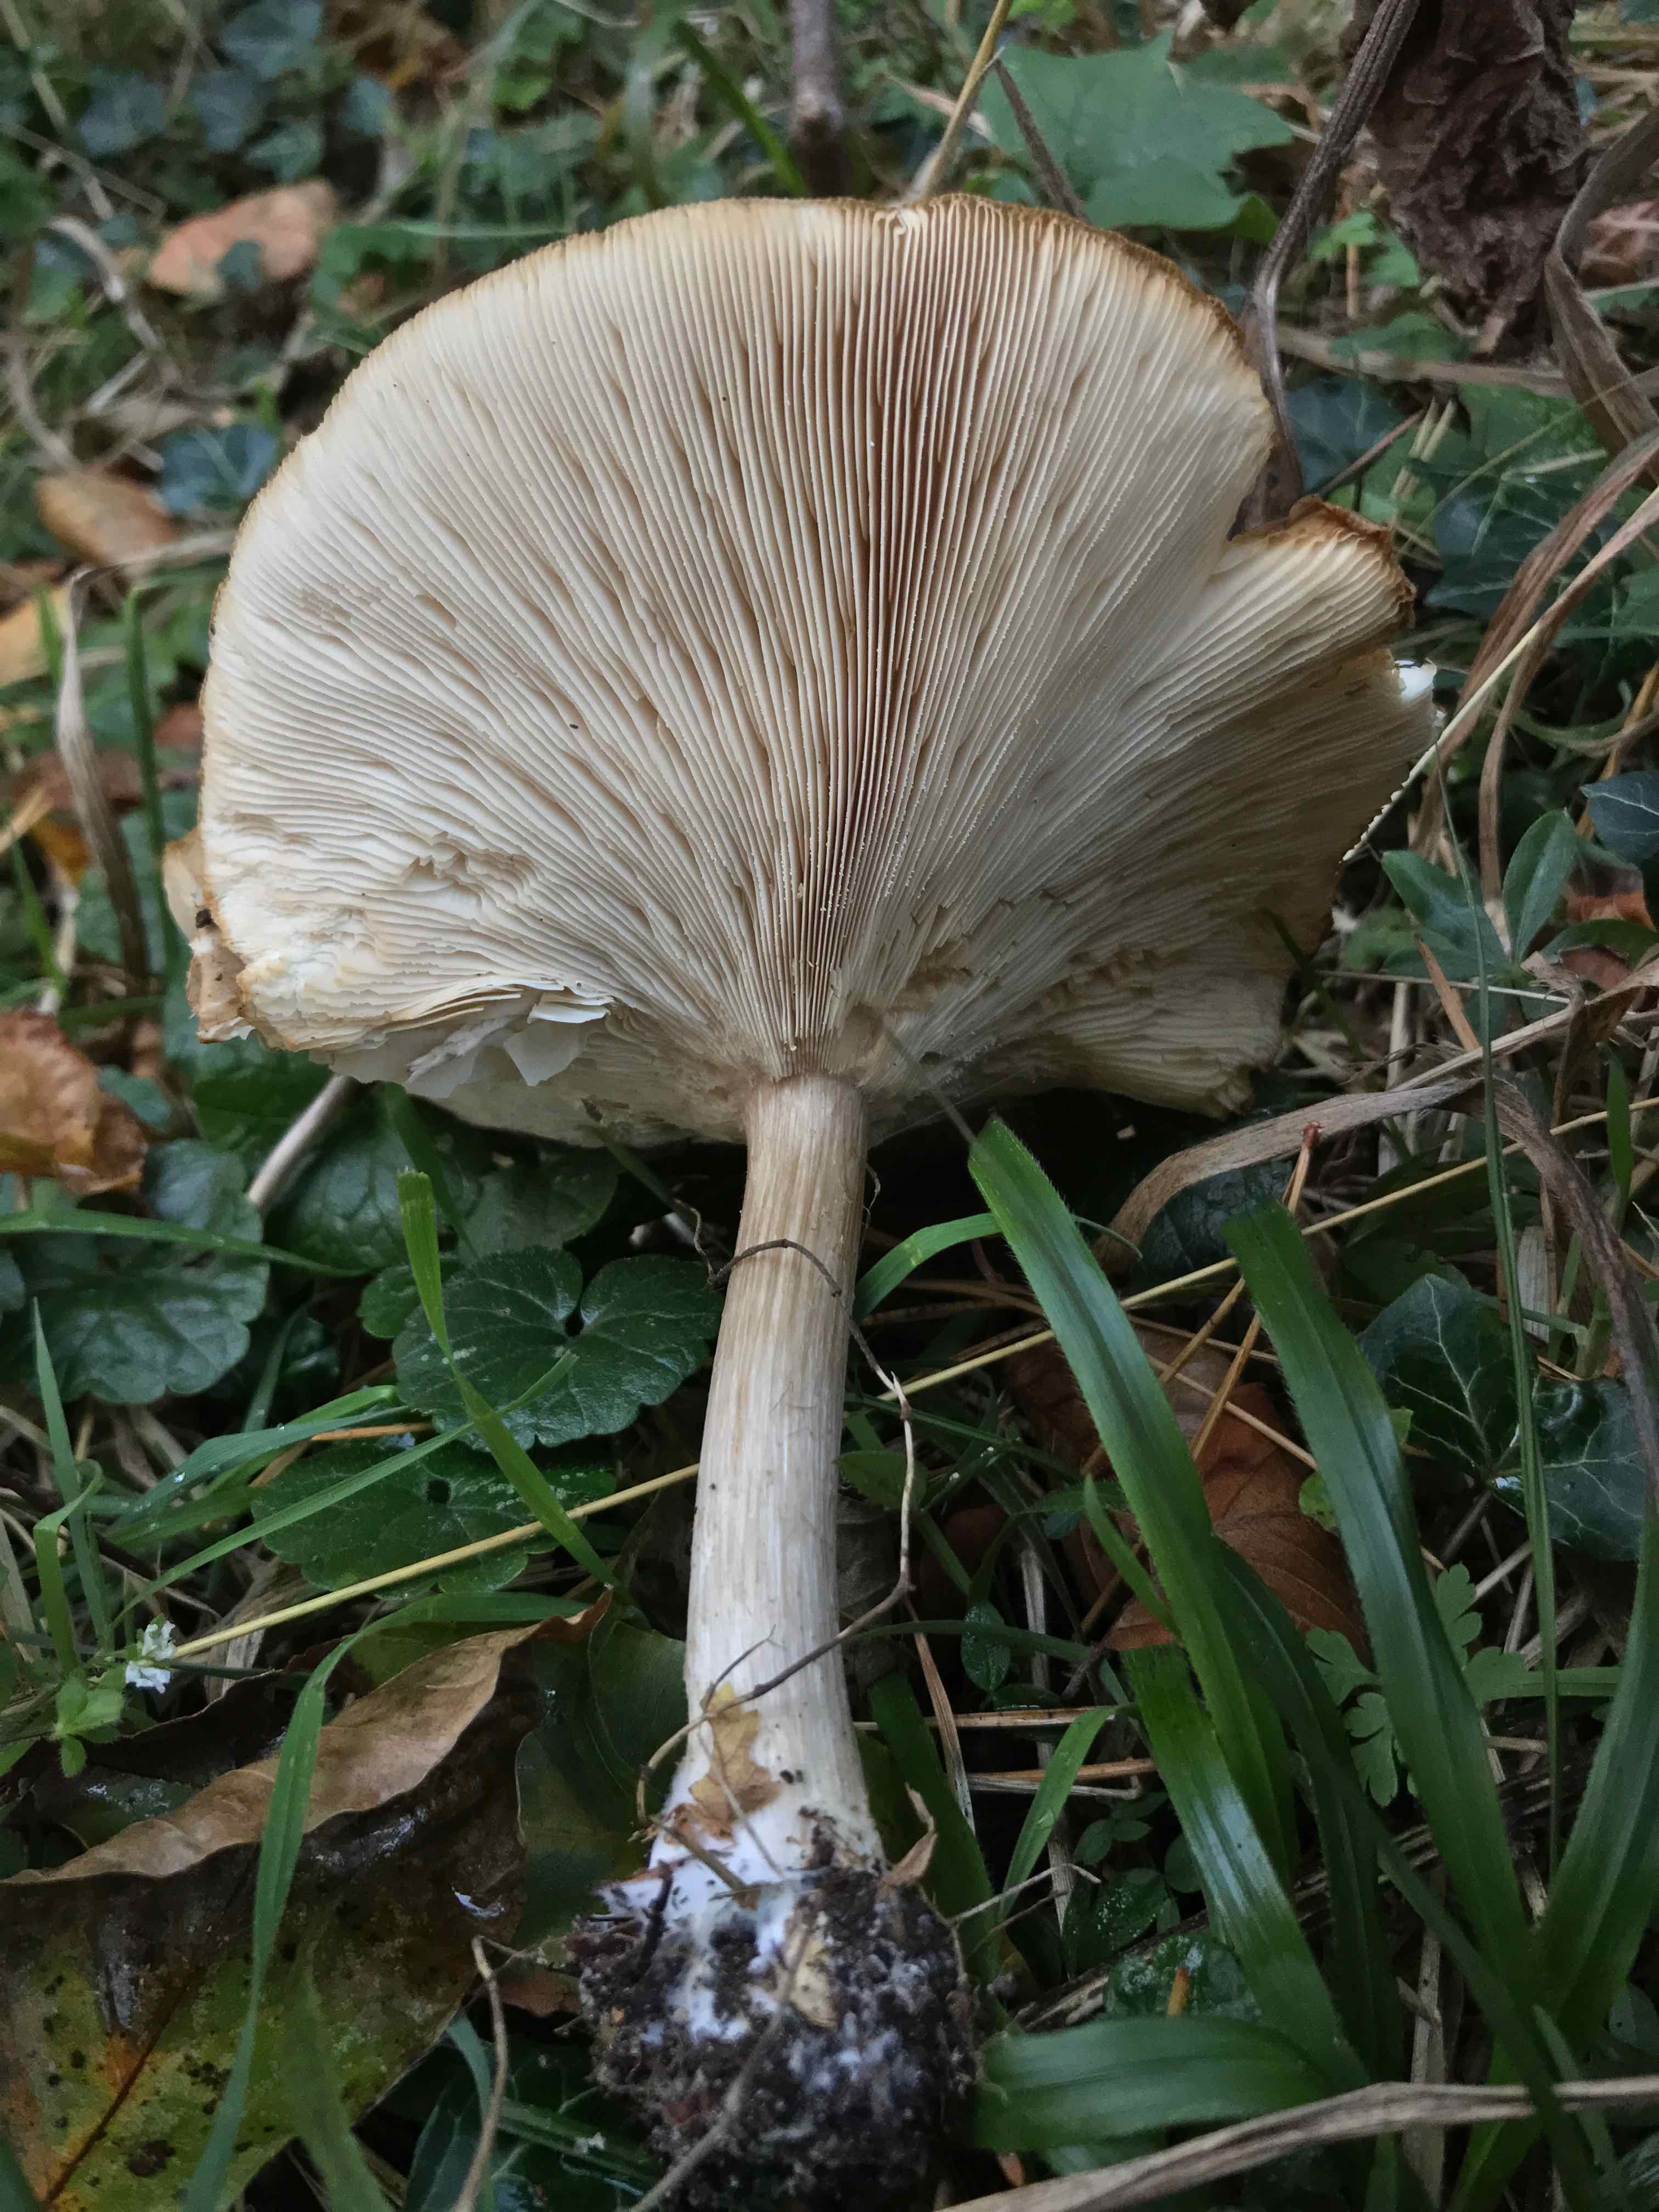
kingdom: Fungi
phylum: Basidiomycota
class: Agaricomycetes
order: Agaricales
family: Tricholomataceae
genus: Melanoleuca
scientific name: Melanoleuca grammopodia
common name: stribestokket munkehat
